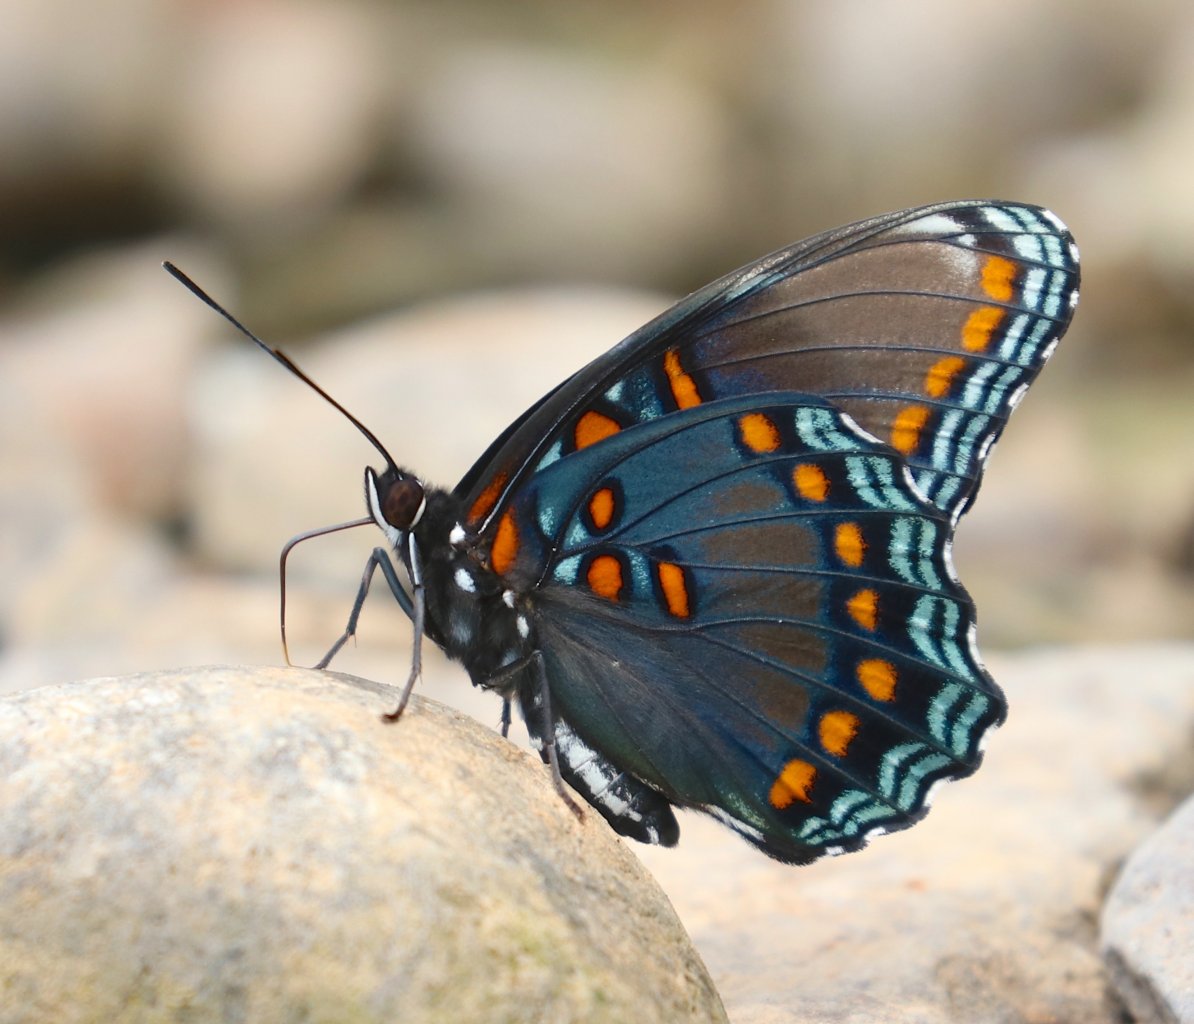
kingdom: Animalia
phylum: Arthropoda
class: Insecta
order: Lepidoptera
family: Nymphalidae
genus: Limenitis
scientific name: Limenitis astyanax
